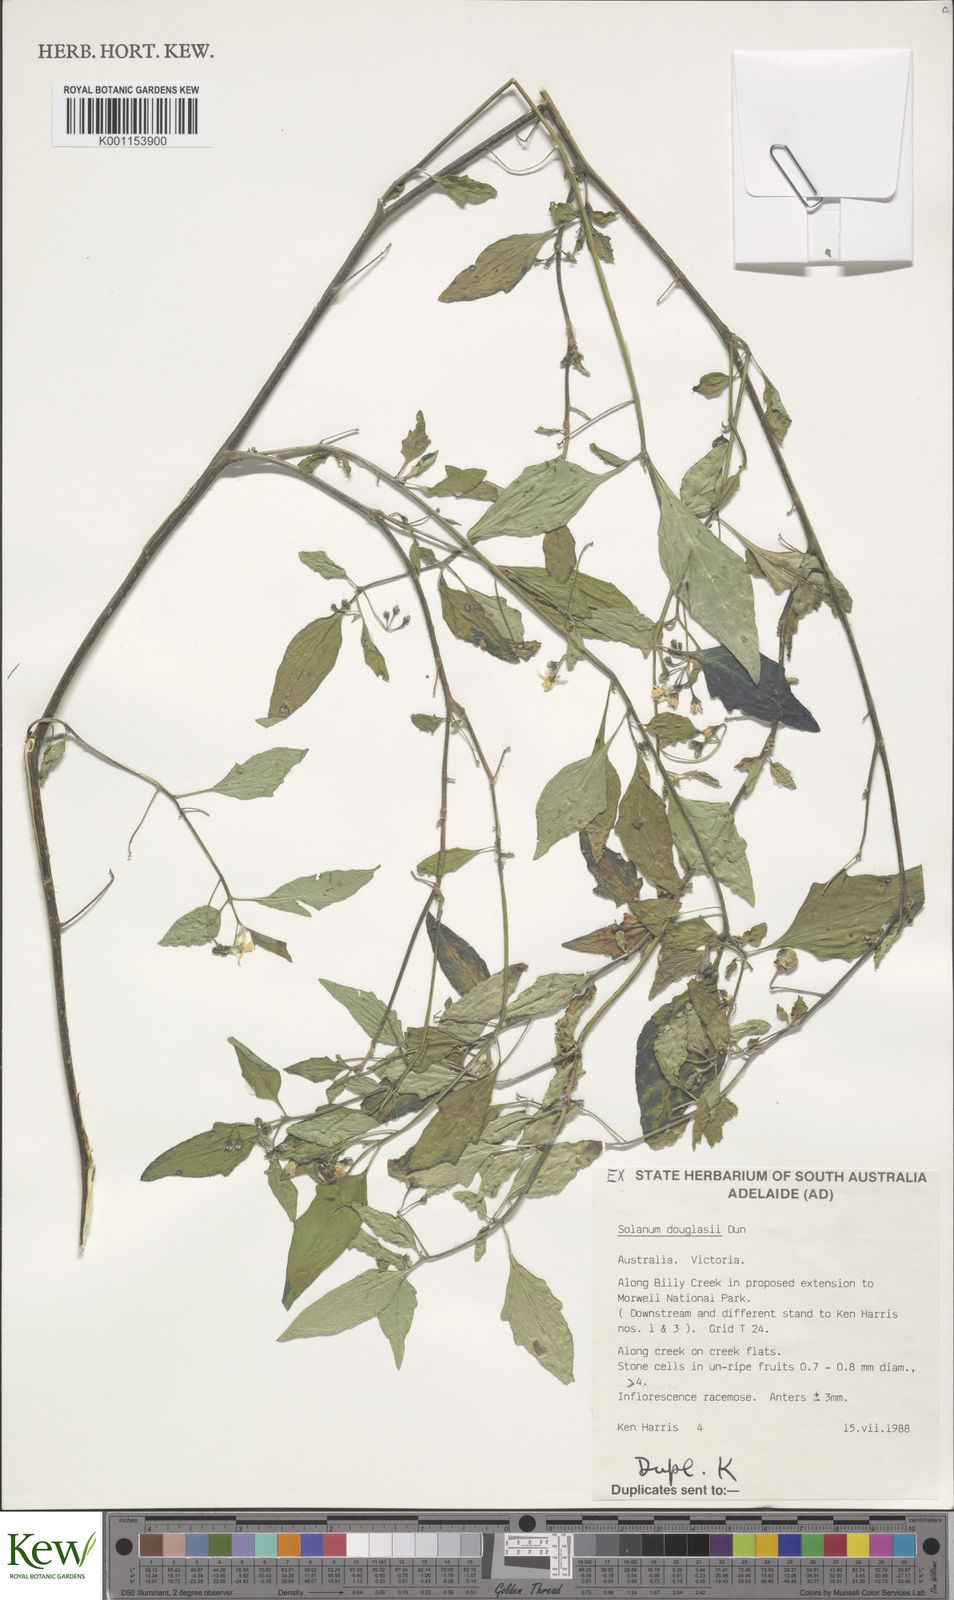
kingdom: Plantae
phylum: Tracheophyta
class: Magnoliopsida
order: Solanales
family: Solanaceae
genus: Solanum
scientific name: Solanum douglasii
